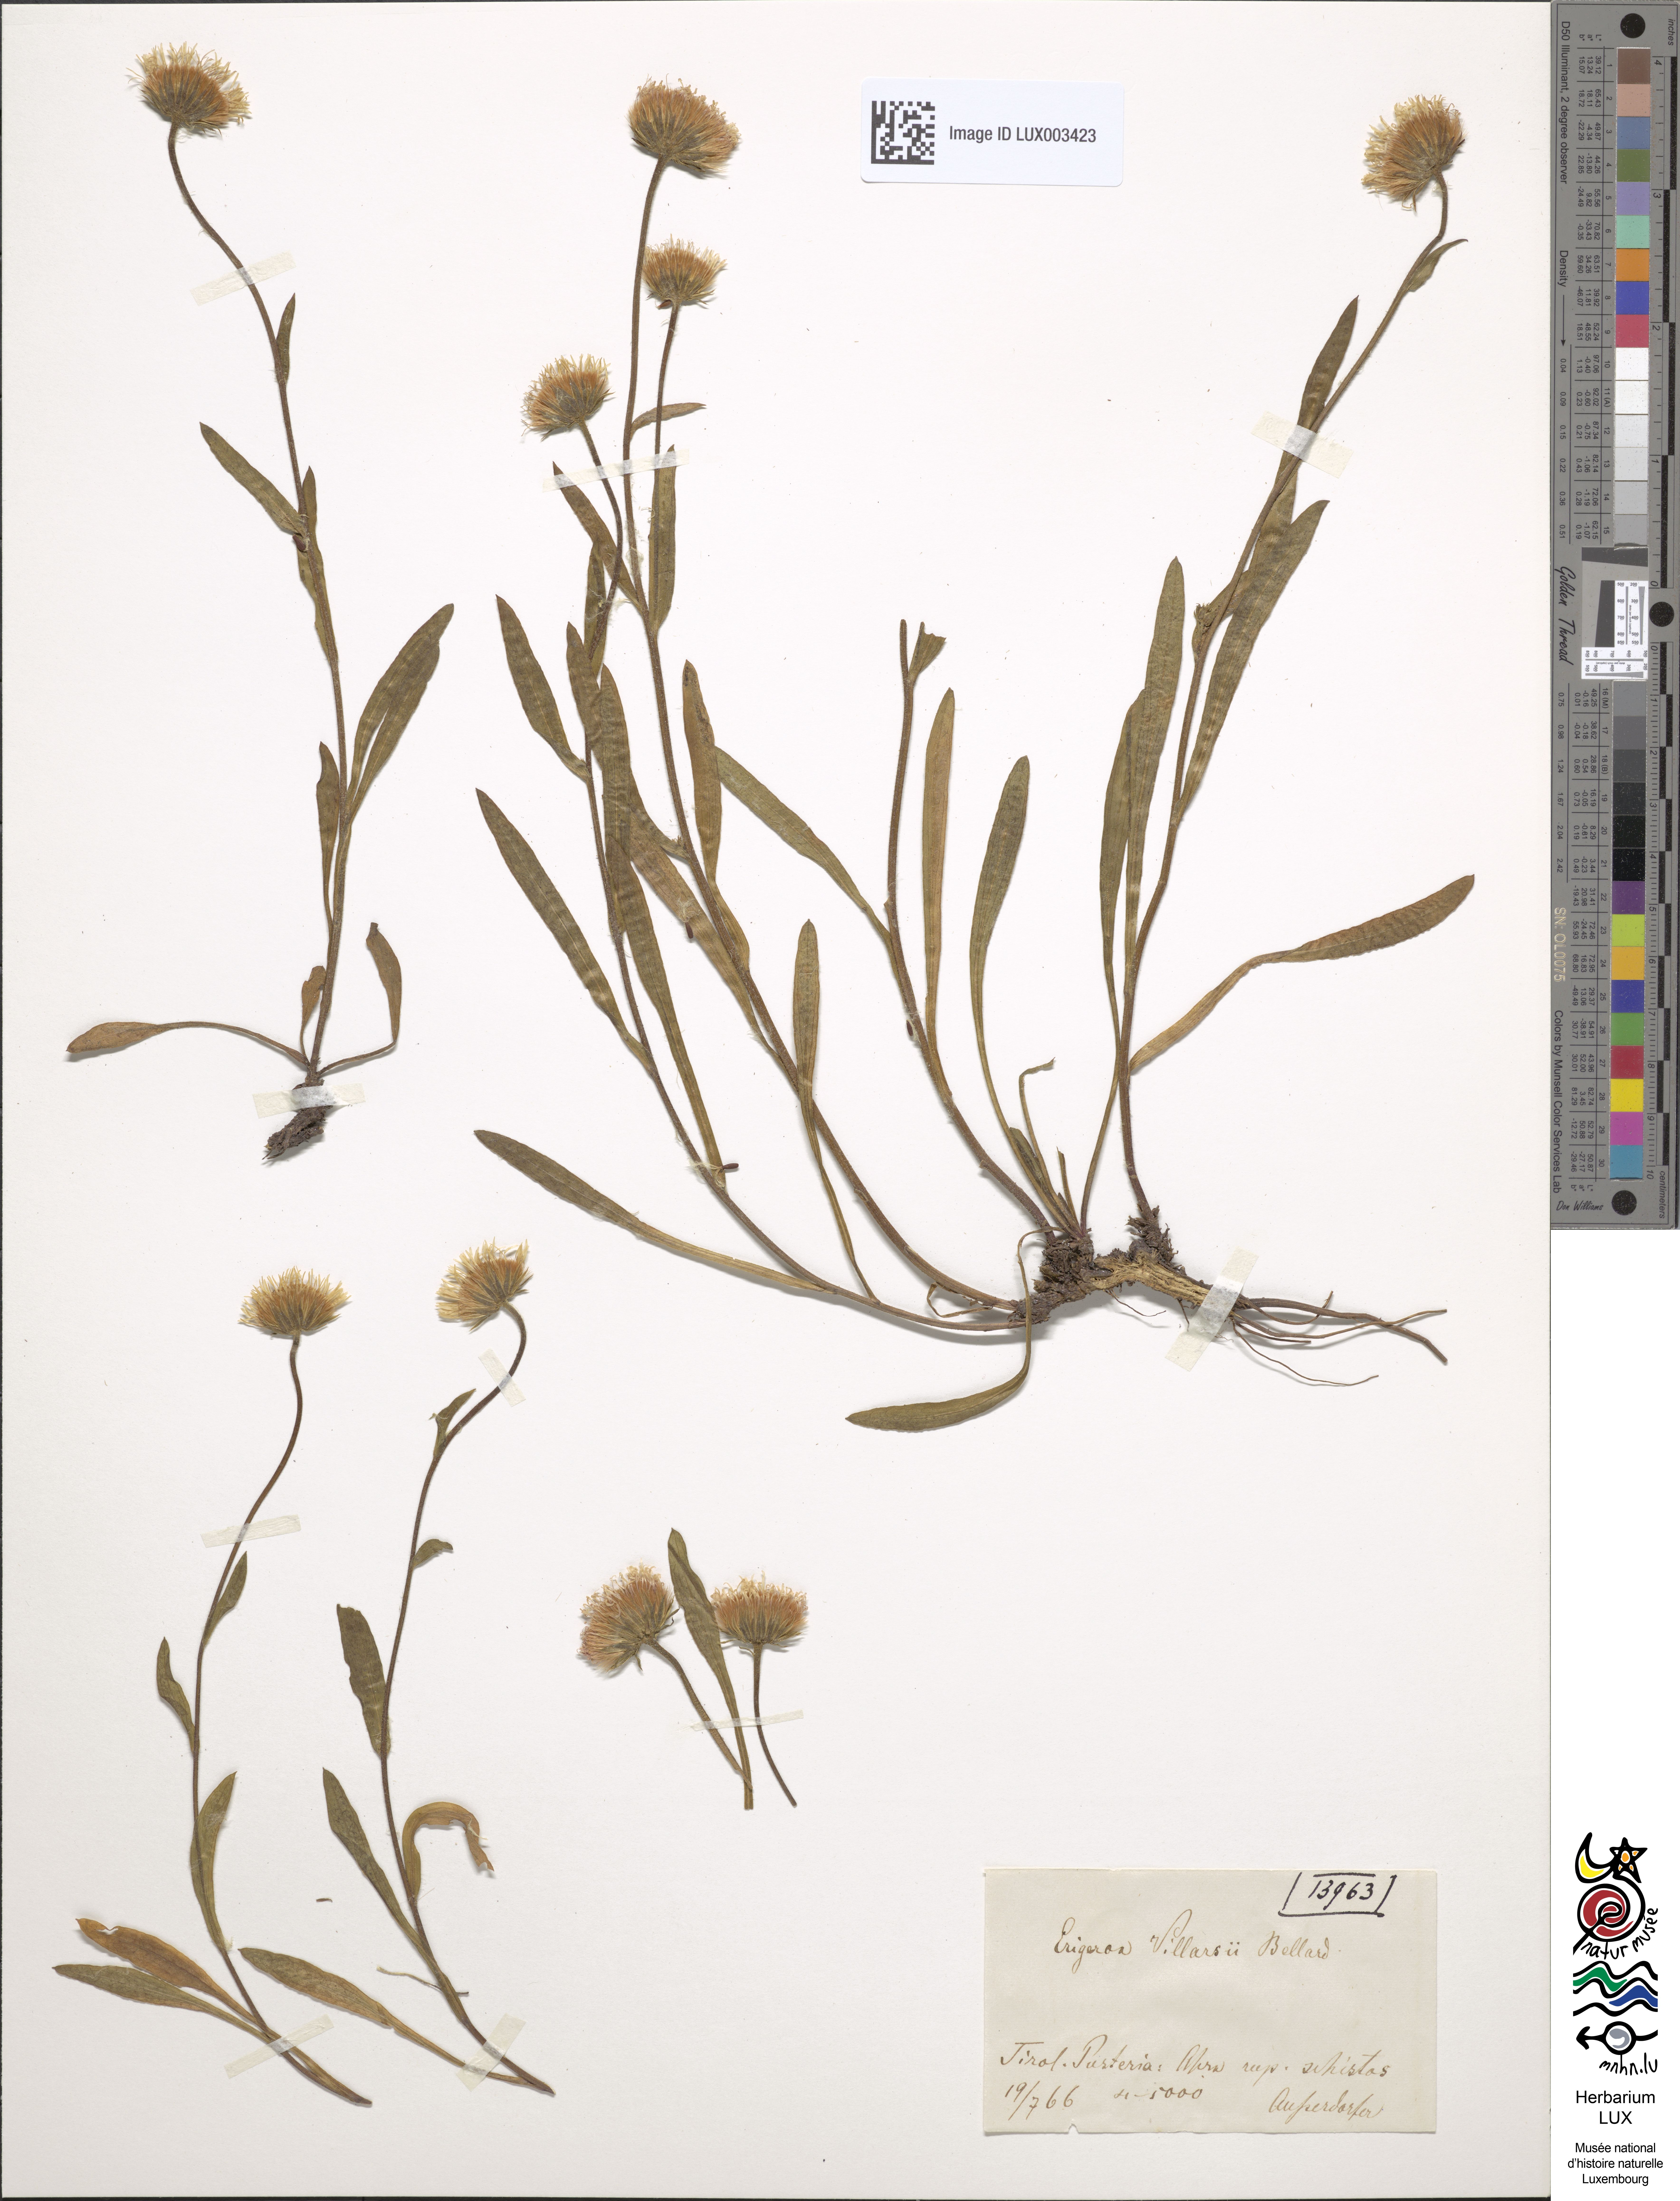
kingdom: Plantae
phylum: Tracheophyta
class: Magnoliopsida
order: Asterales
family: Asteraceae
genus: Erigeron
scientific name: Erigeron atticus
